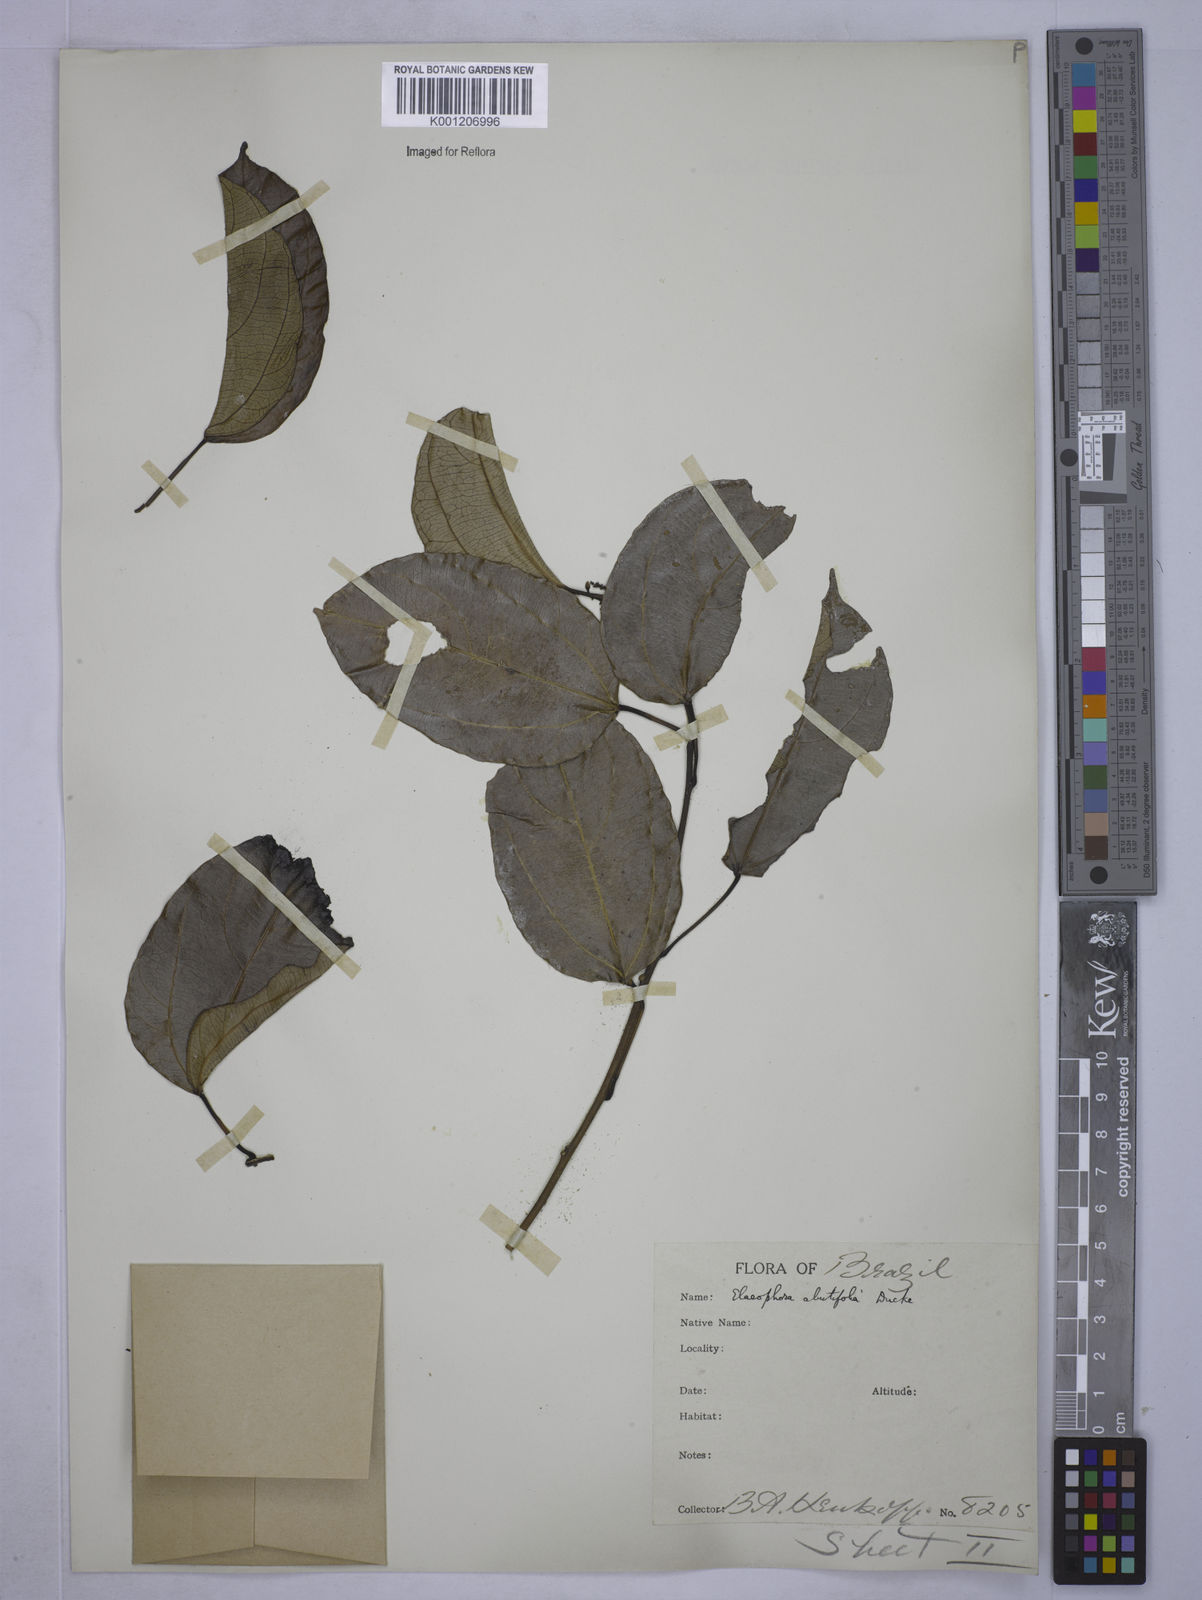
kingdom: Plantae
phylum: Tracheophyta
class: Magnoliopsida
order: Malpighiales
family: Euphorbiaceae
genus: Plukenetia
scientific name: Plukenetia polyadenia
